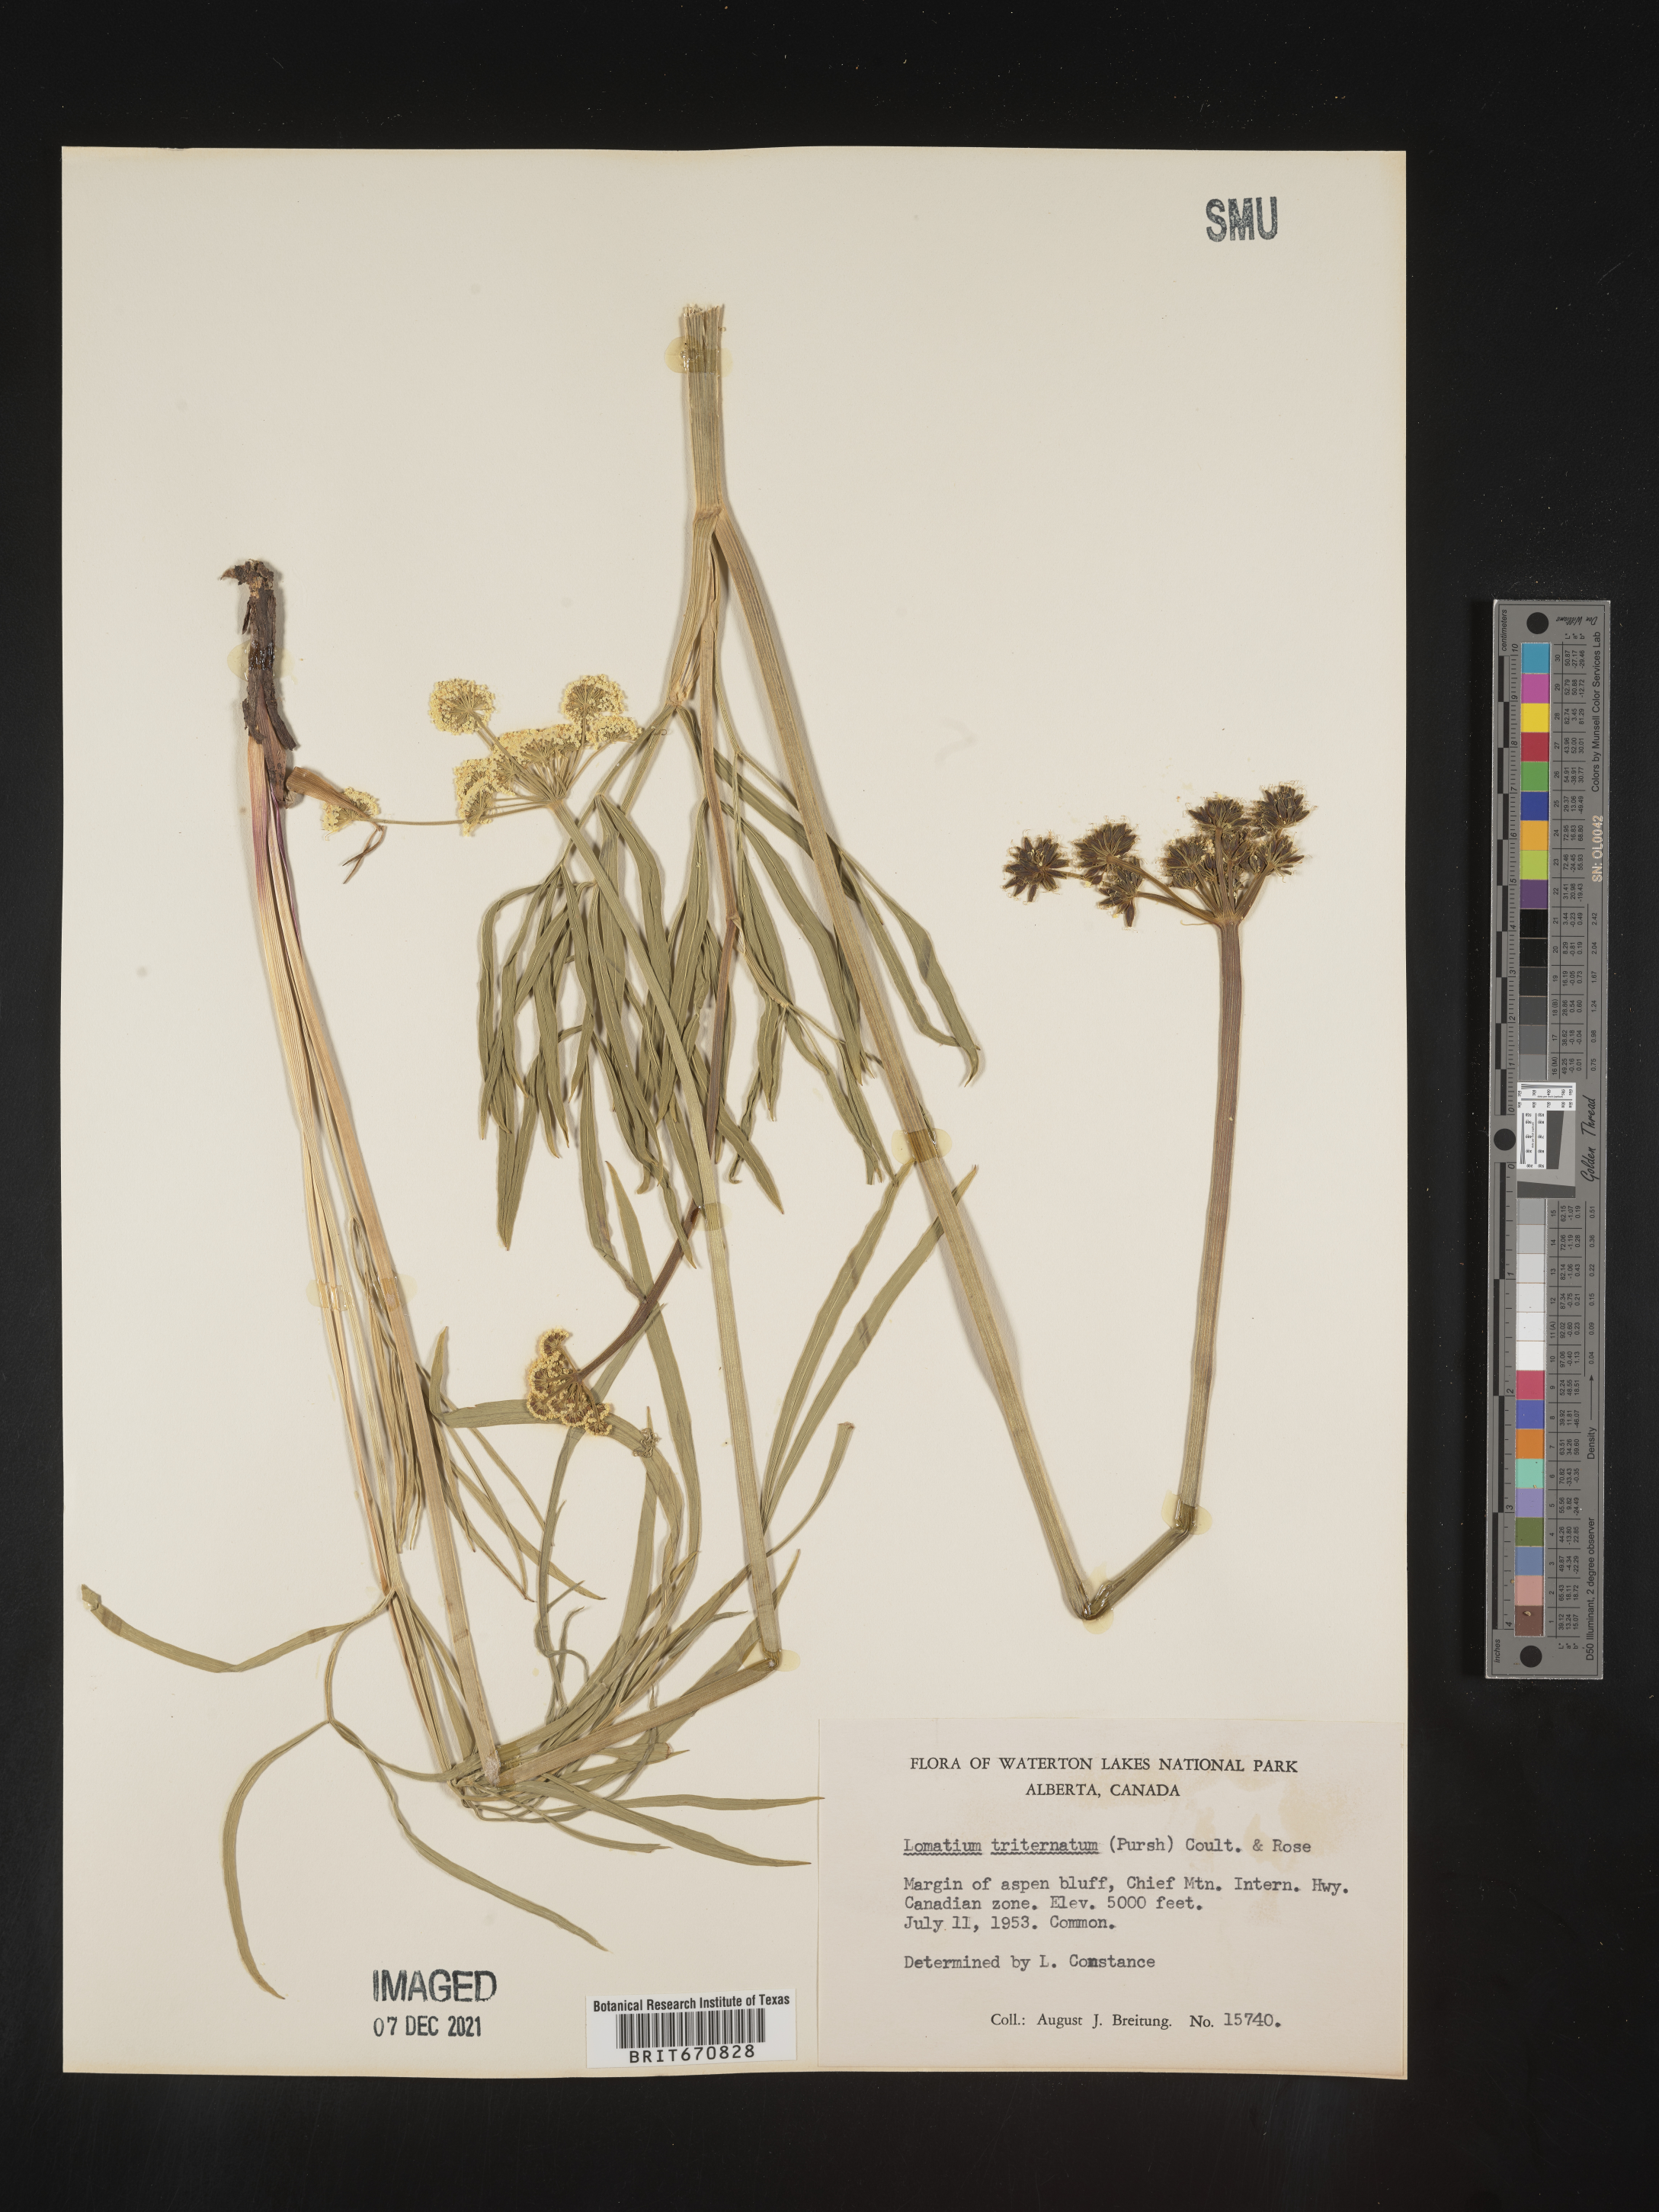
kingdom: Plantae
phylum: Tracheophyta
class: Magnoliopsida
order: Apiales
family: Apiaceae
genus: Lomatium
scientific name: Lomatium triternatum
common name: Ternate lomatium
